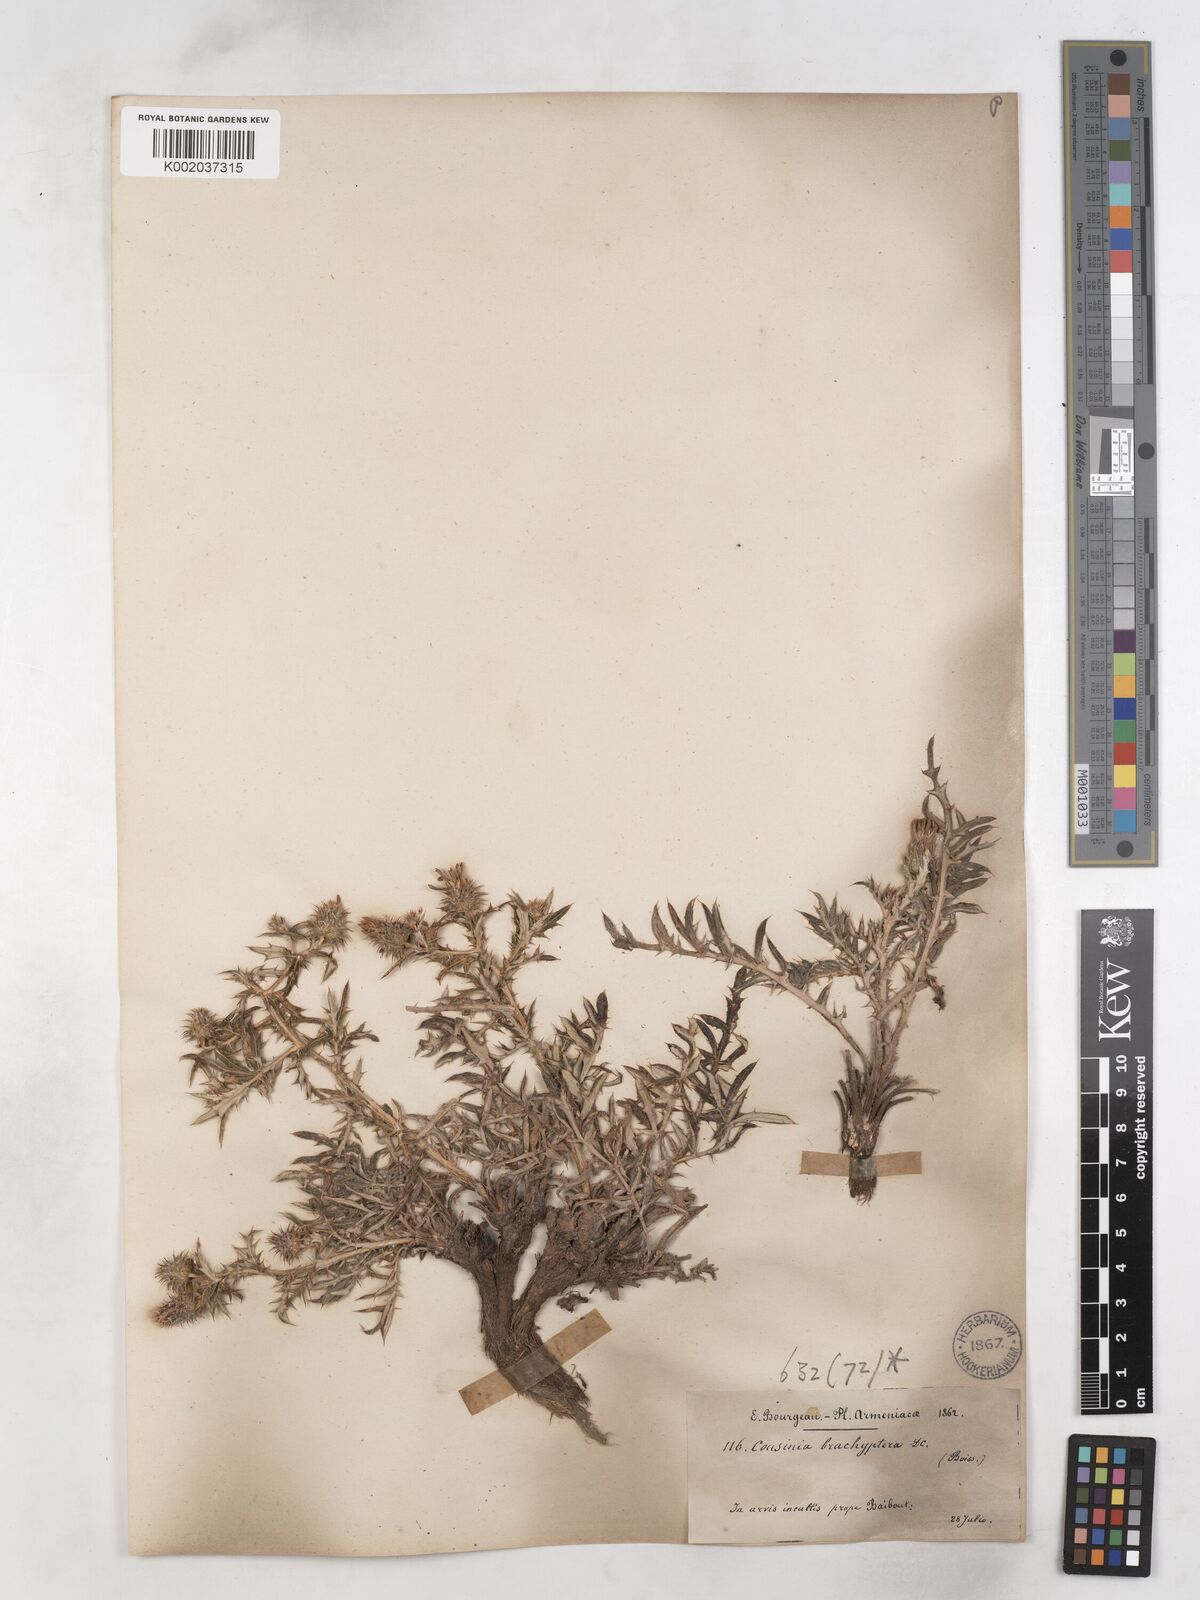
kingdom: Plantae
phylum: Tracheophyta
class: Magnoliopsida
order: Asterales
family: Asteraceae
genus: Cousinia
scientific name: Cousinia brachyptera
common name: Short-winged cousinia
